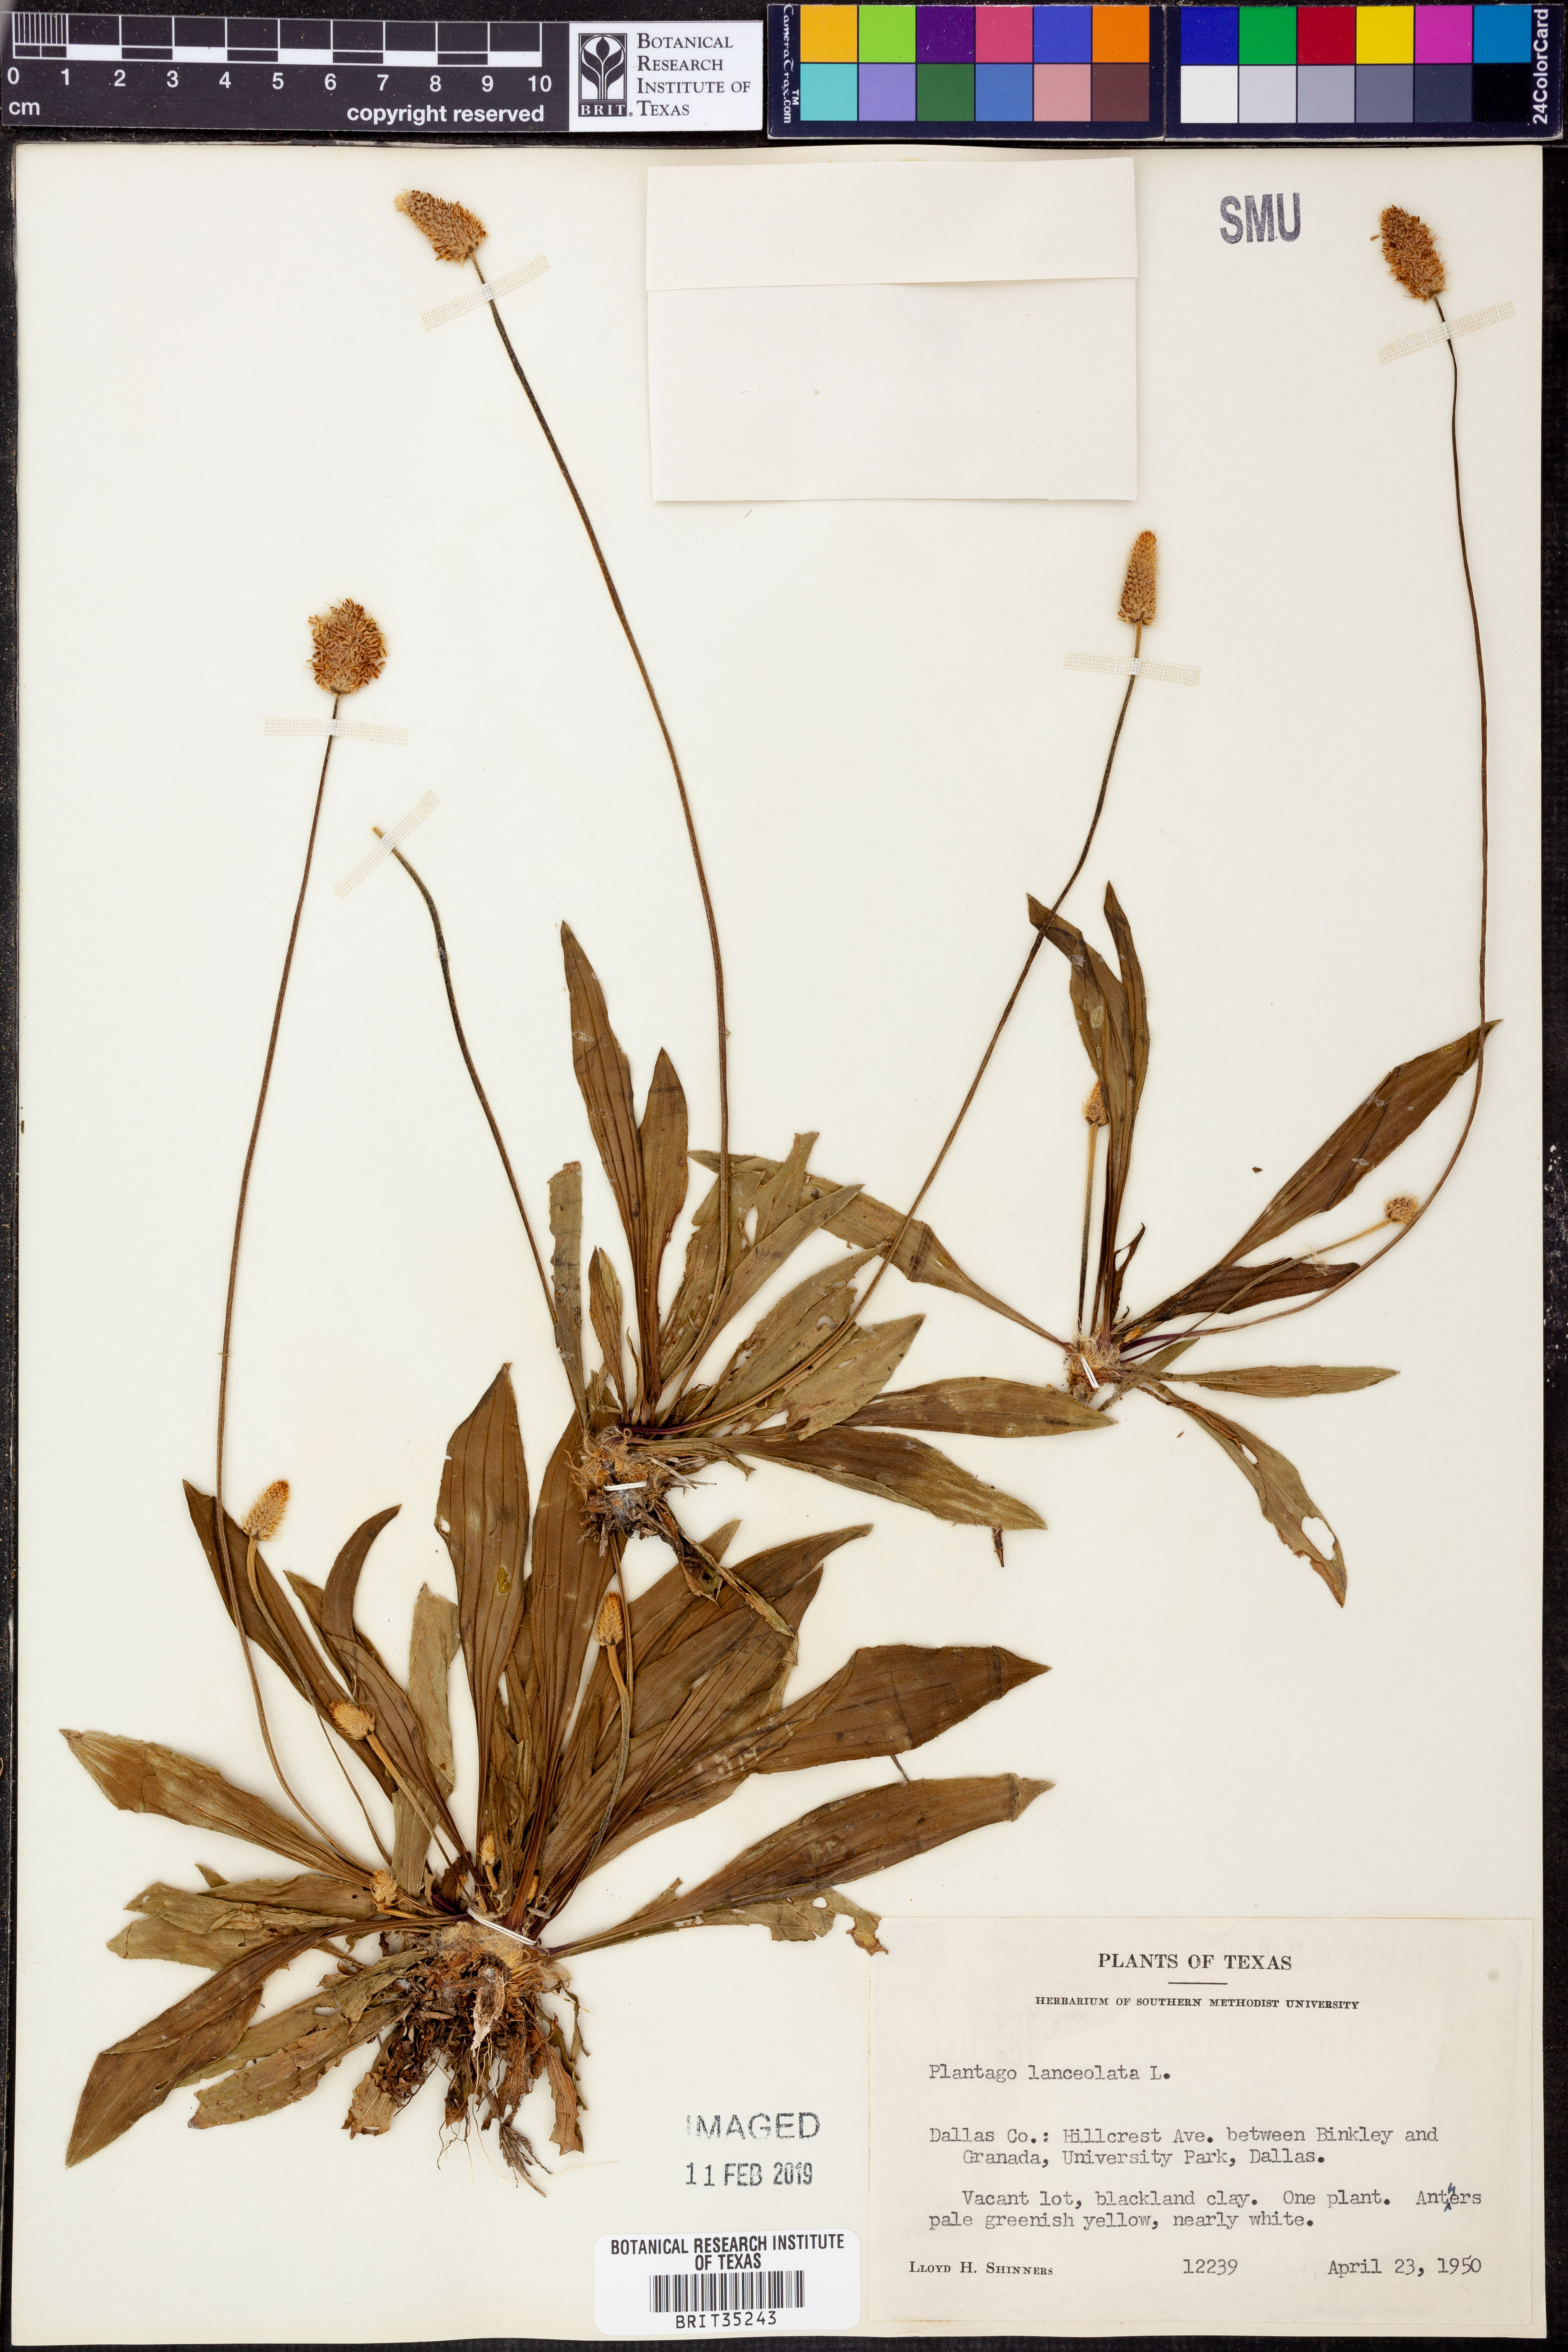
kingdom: Plantae
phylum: Tracheophyta
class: Magnoliopsida
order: Lamiales
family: Plantaginaceae
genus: Plantago
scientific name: Plantago lanceolata
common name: Ribwort plantain
